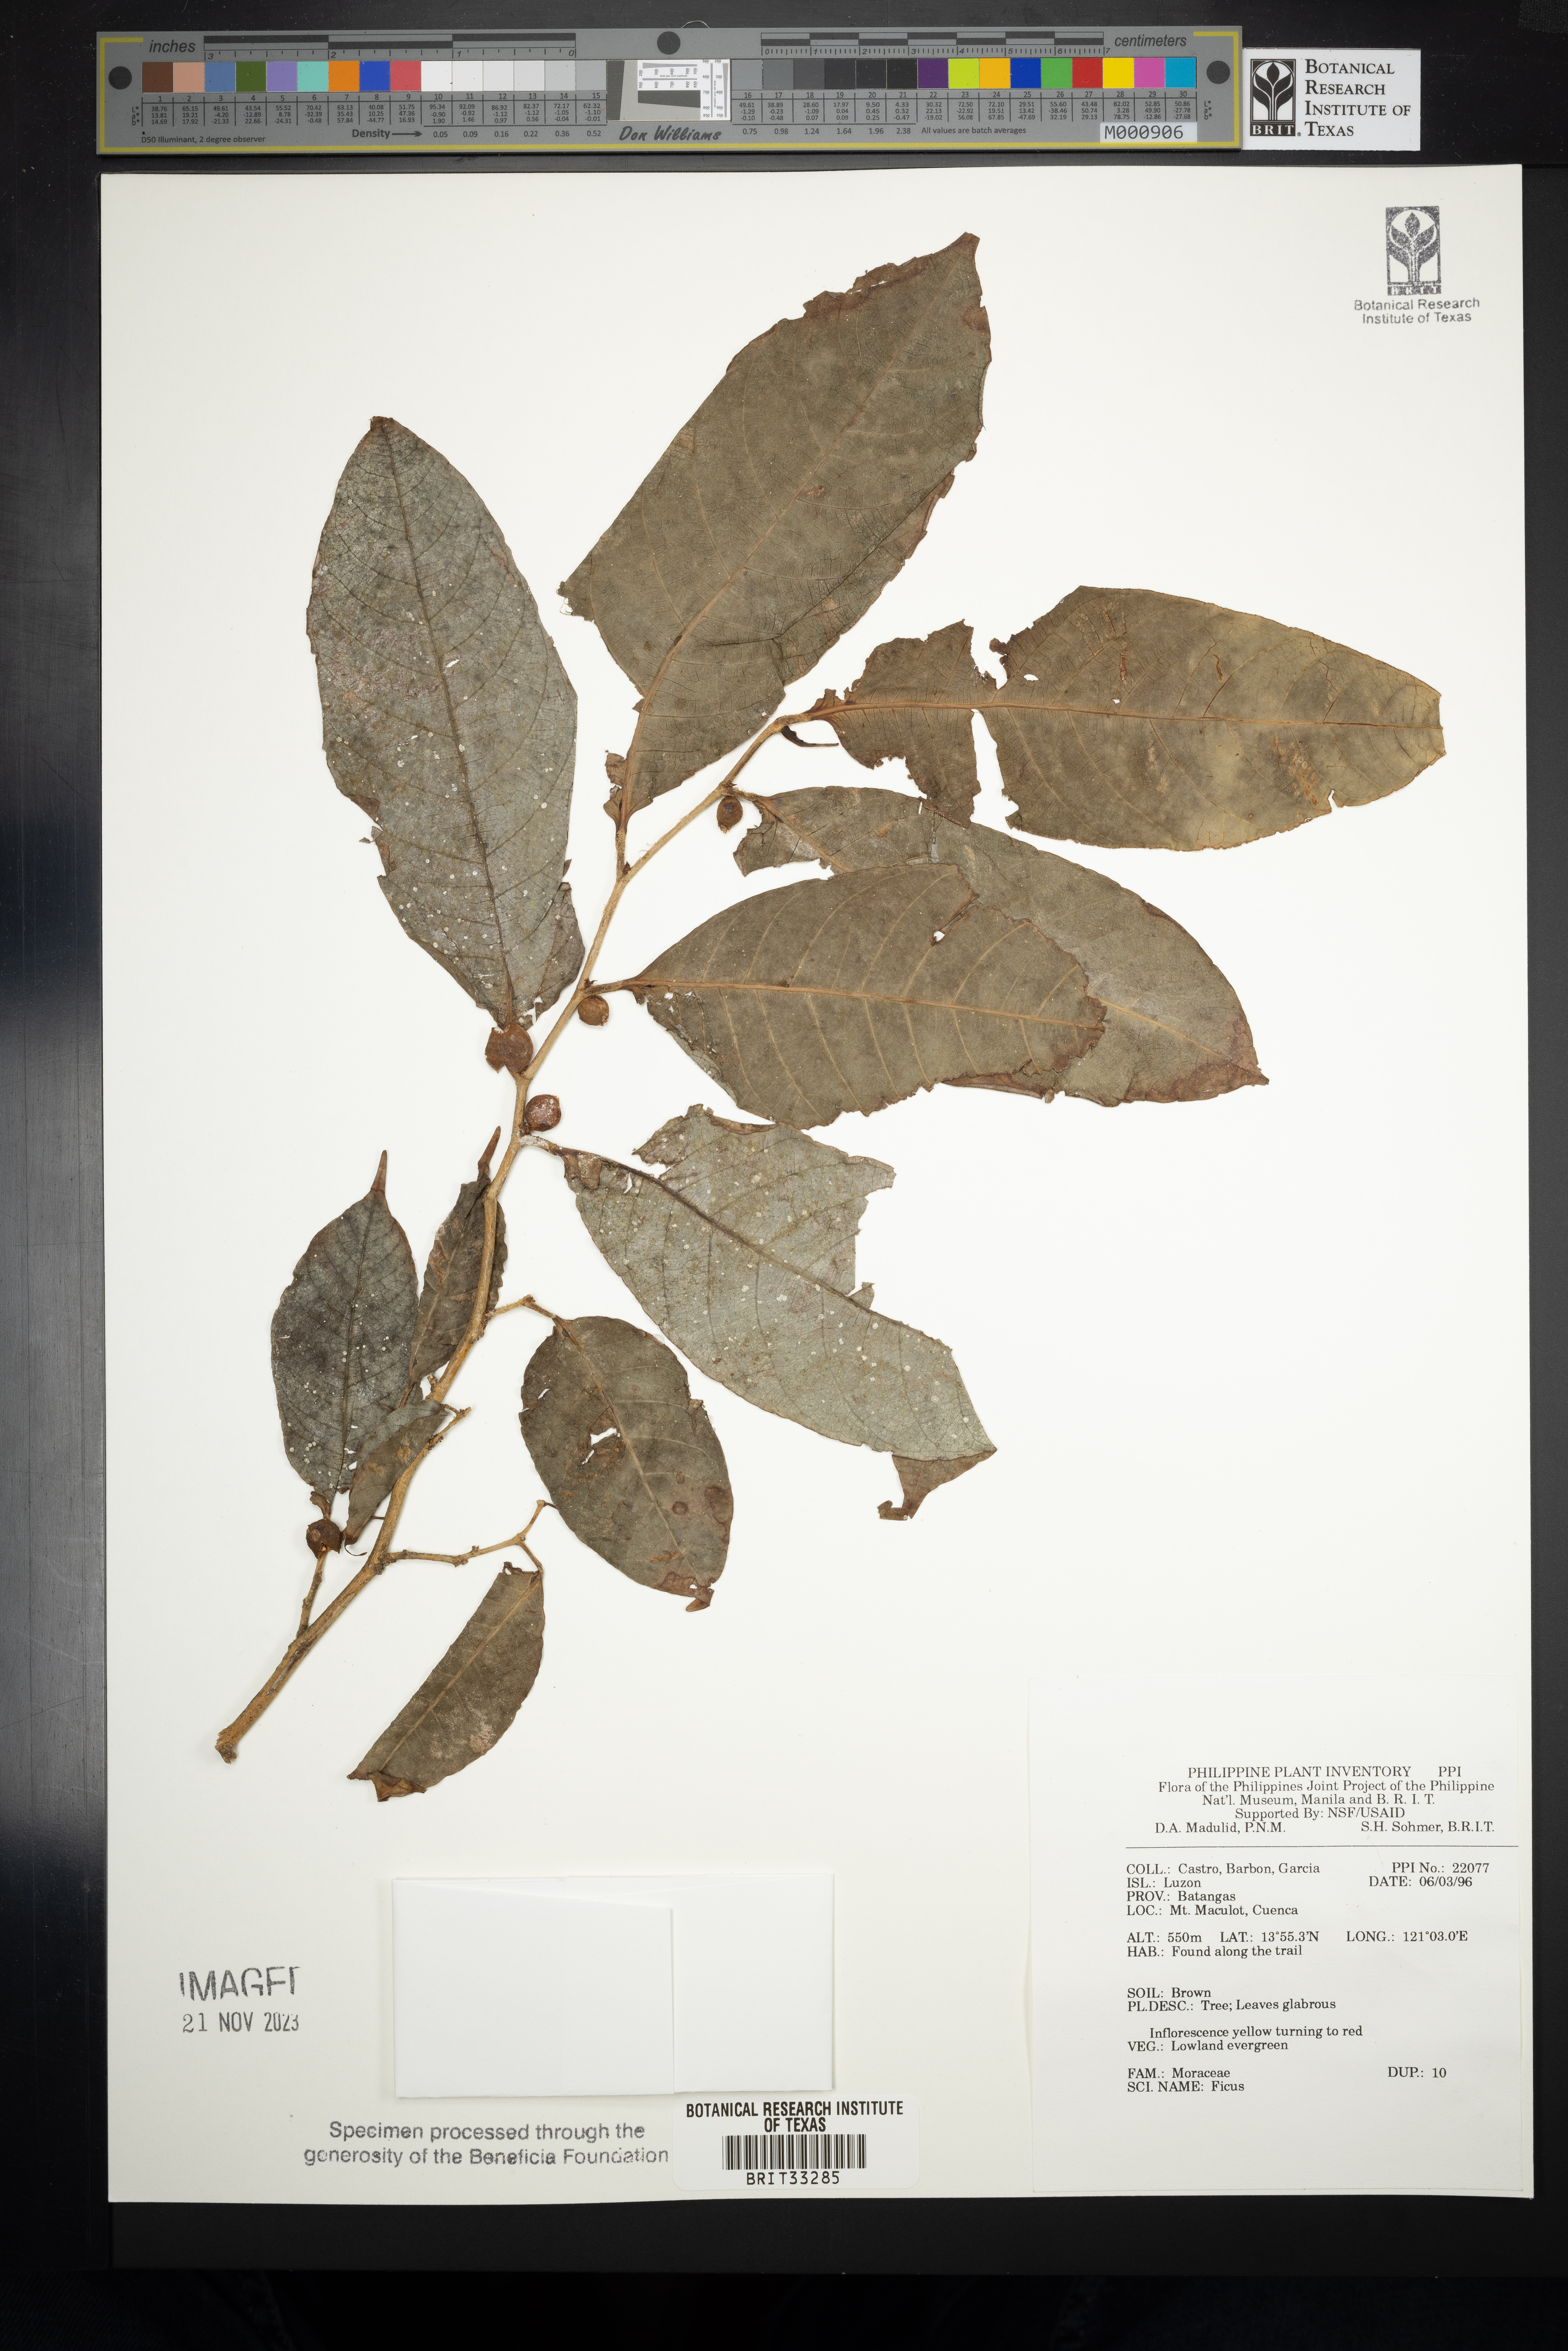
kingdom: Plantae
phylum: Tracheophyta
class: Magnoliopsida
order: Rosales
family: Moraceae
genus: Ficus
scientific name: Ficus
